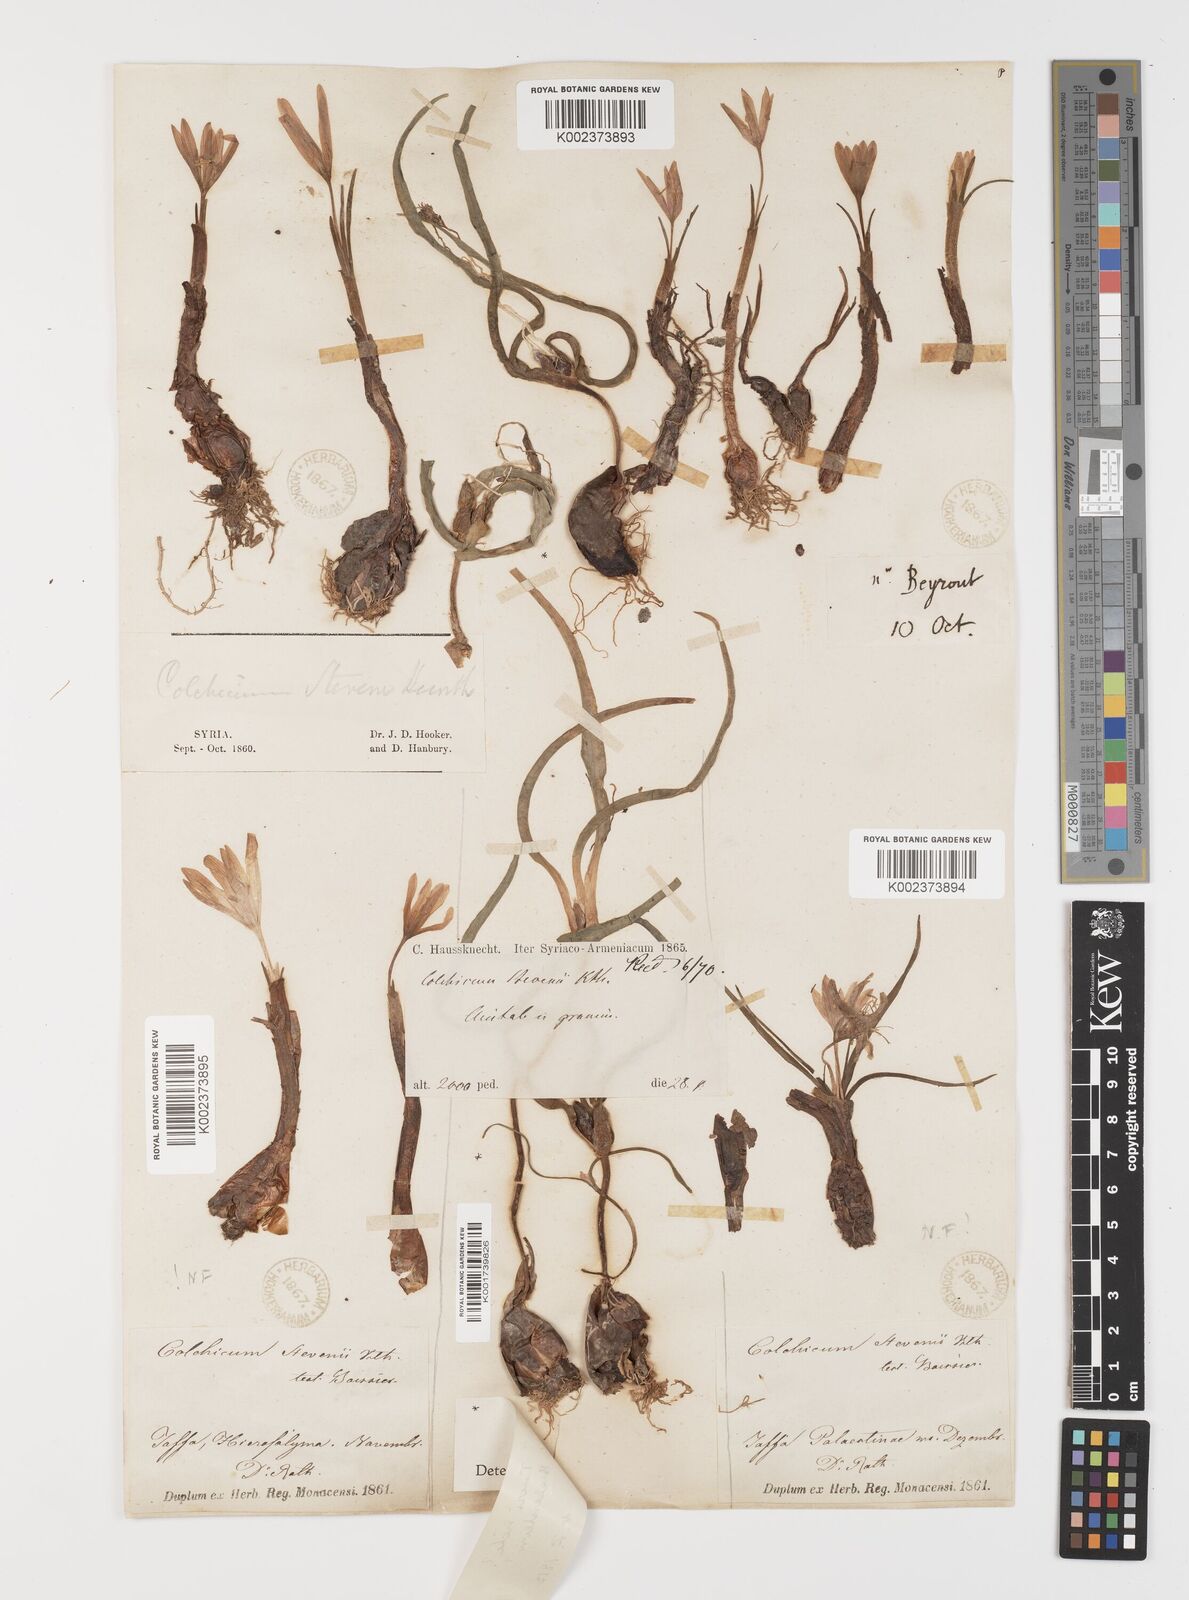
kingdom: Plantae
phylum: Tracheophyta
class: Liliopsida
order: Liliales
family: Colchicaceae
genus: Colchicum
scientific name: Colchicum stevenii
